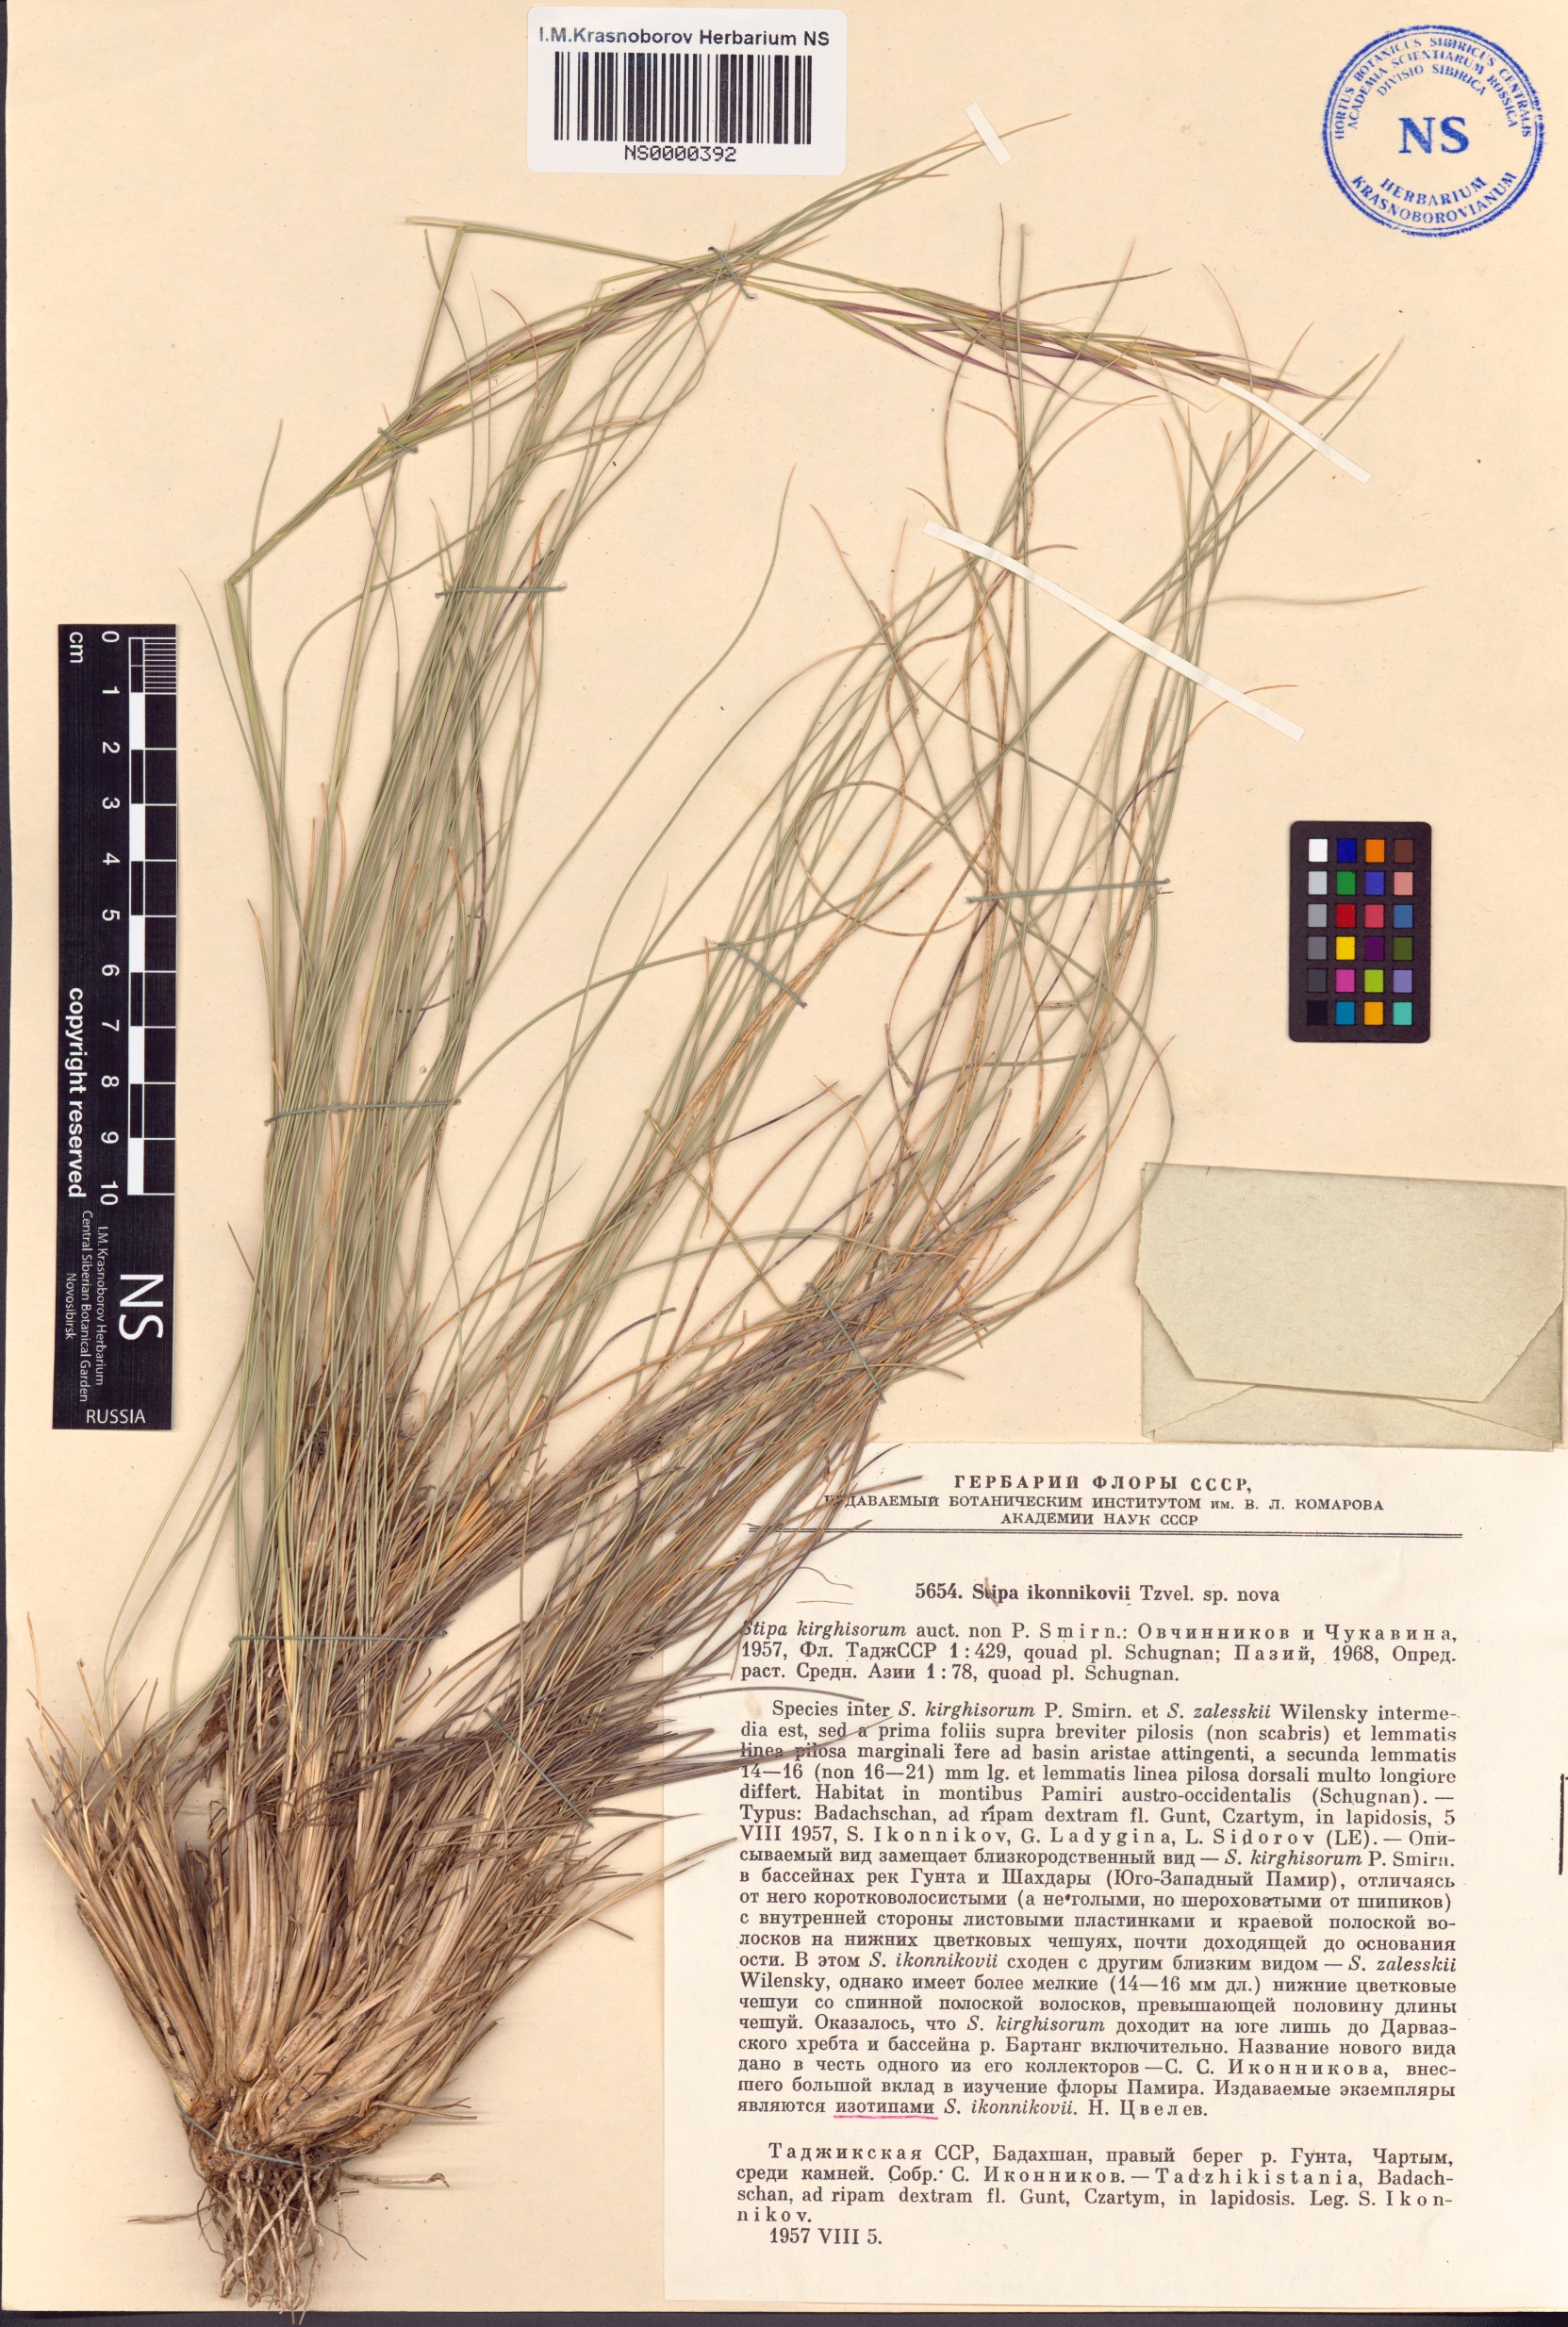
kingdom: Plantae
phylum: Tracheophyta
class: Liliopsida
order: Poales
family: Poaceae
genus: Stipa
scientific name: Stipa kirghisorum
